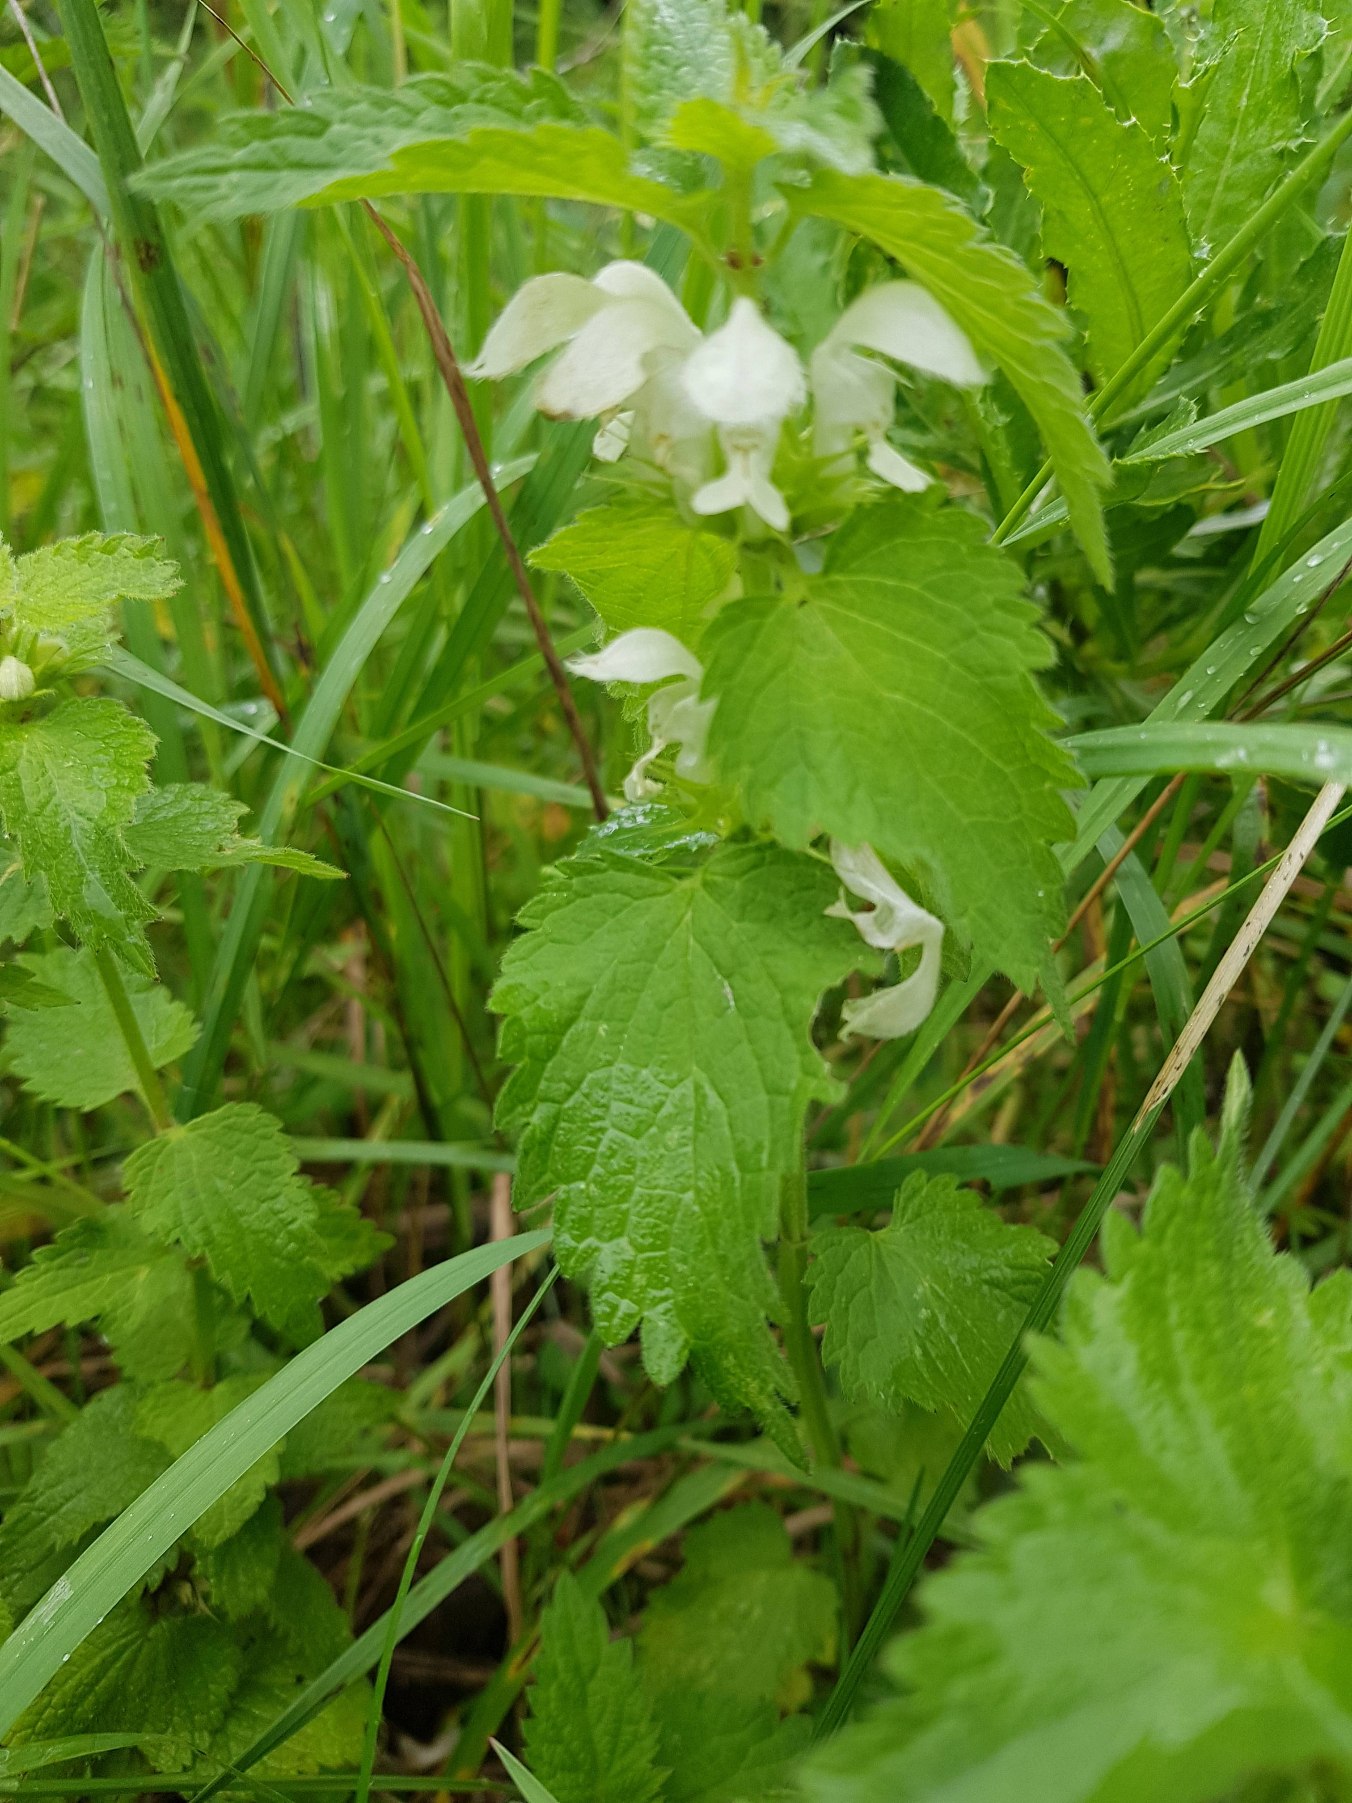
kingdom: Plantae
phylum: Tracheophyta
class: Magnoliopsida
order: Lamiales
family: Lamiaceae
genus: Lamium
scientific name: Lamium album
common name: Døvnælde
